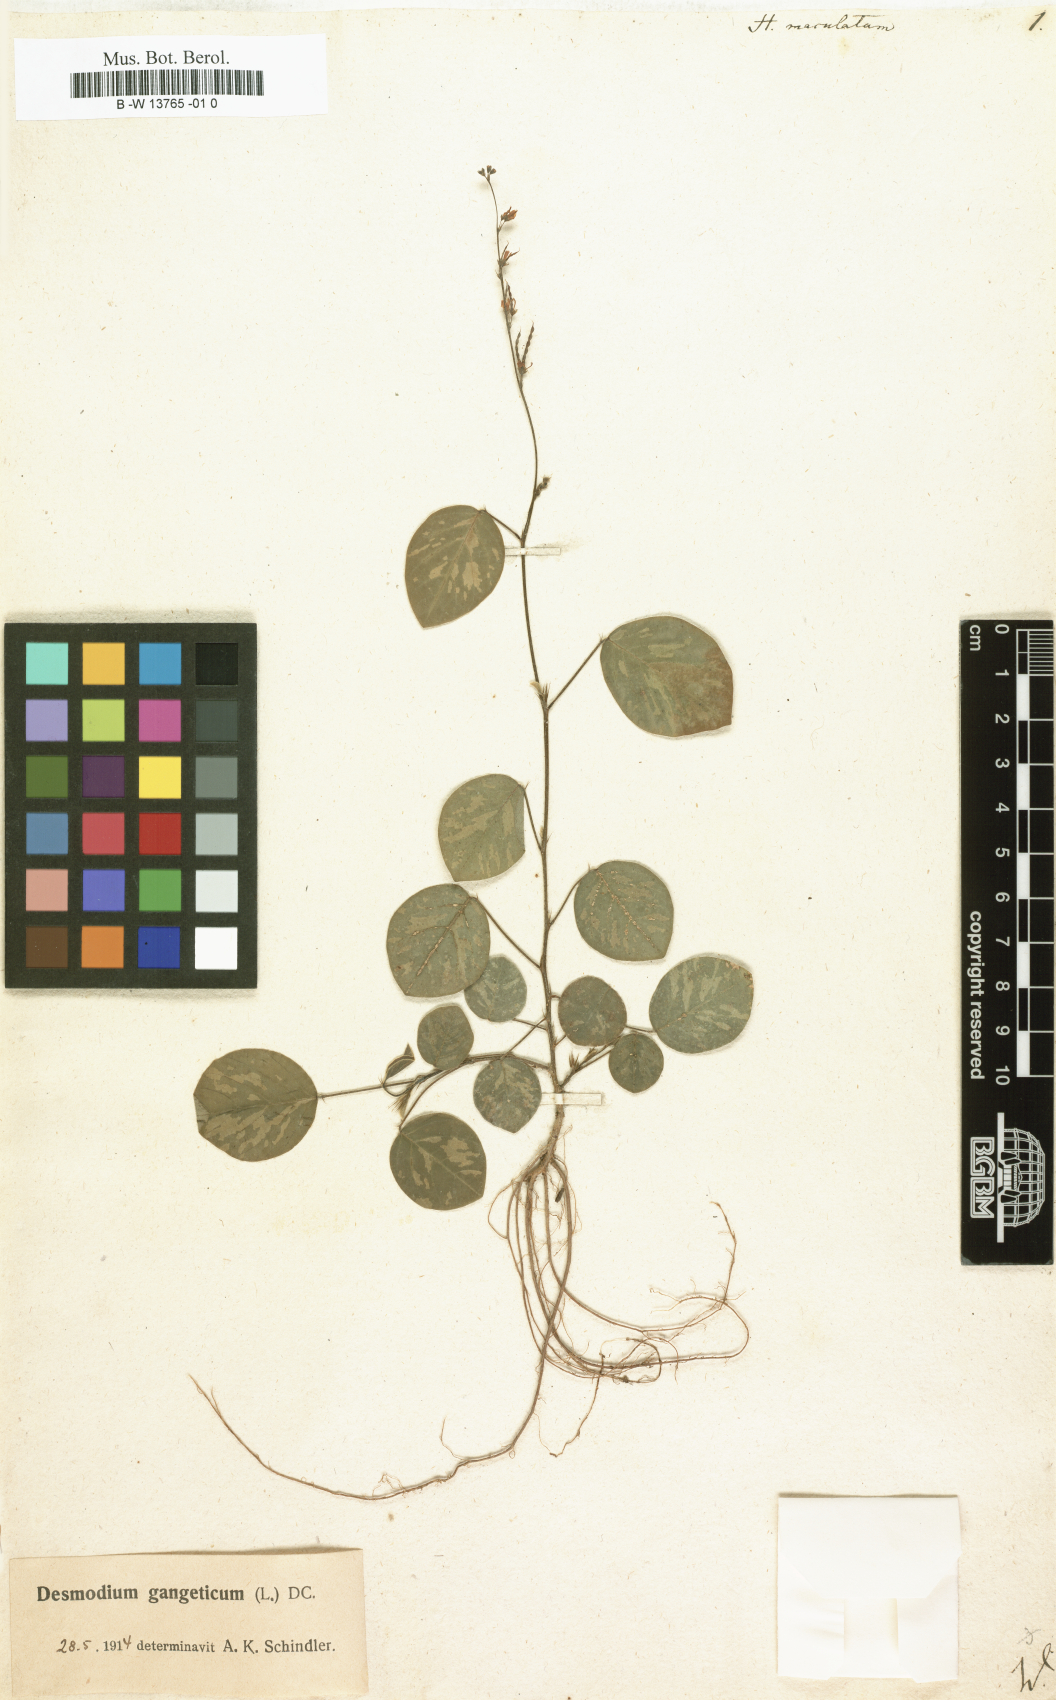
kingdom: Plantae
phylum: Tracheophyta
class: Magnoliopsida
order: Fabales
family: Fabaceae
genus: Pleurolobus
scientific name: Pleurolobus gangeticus
